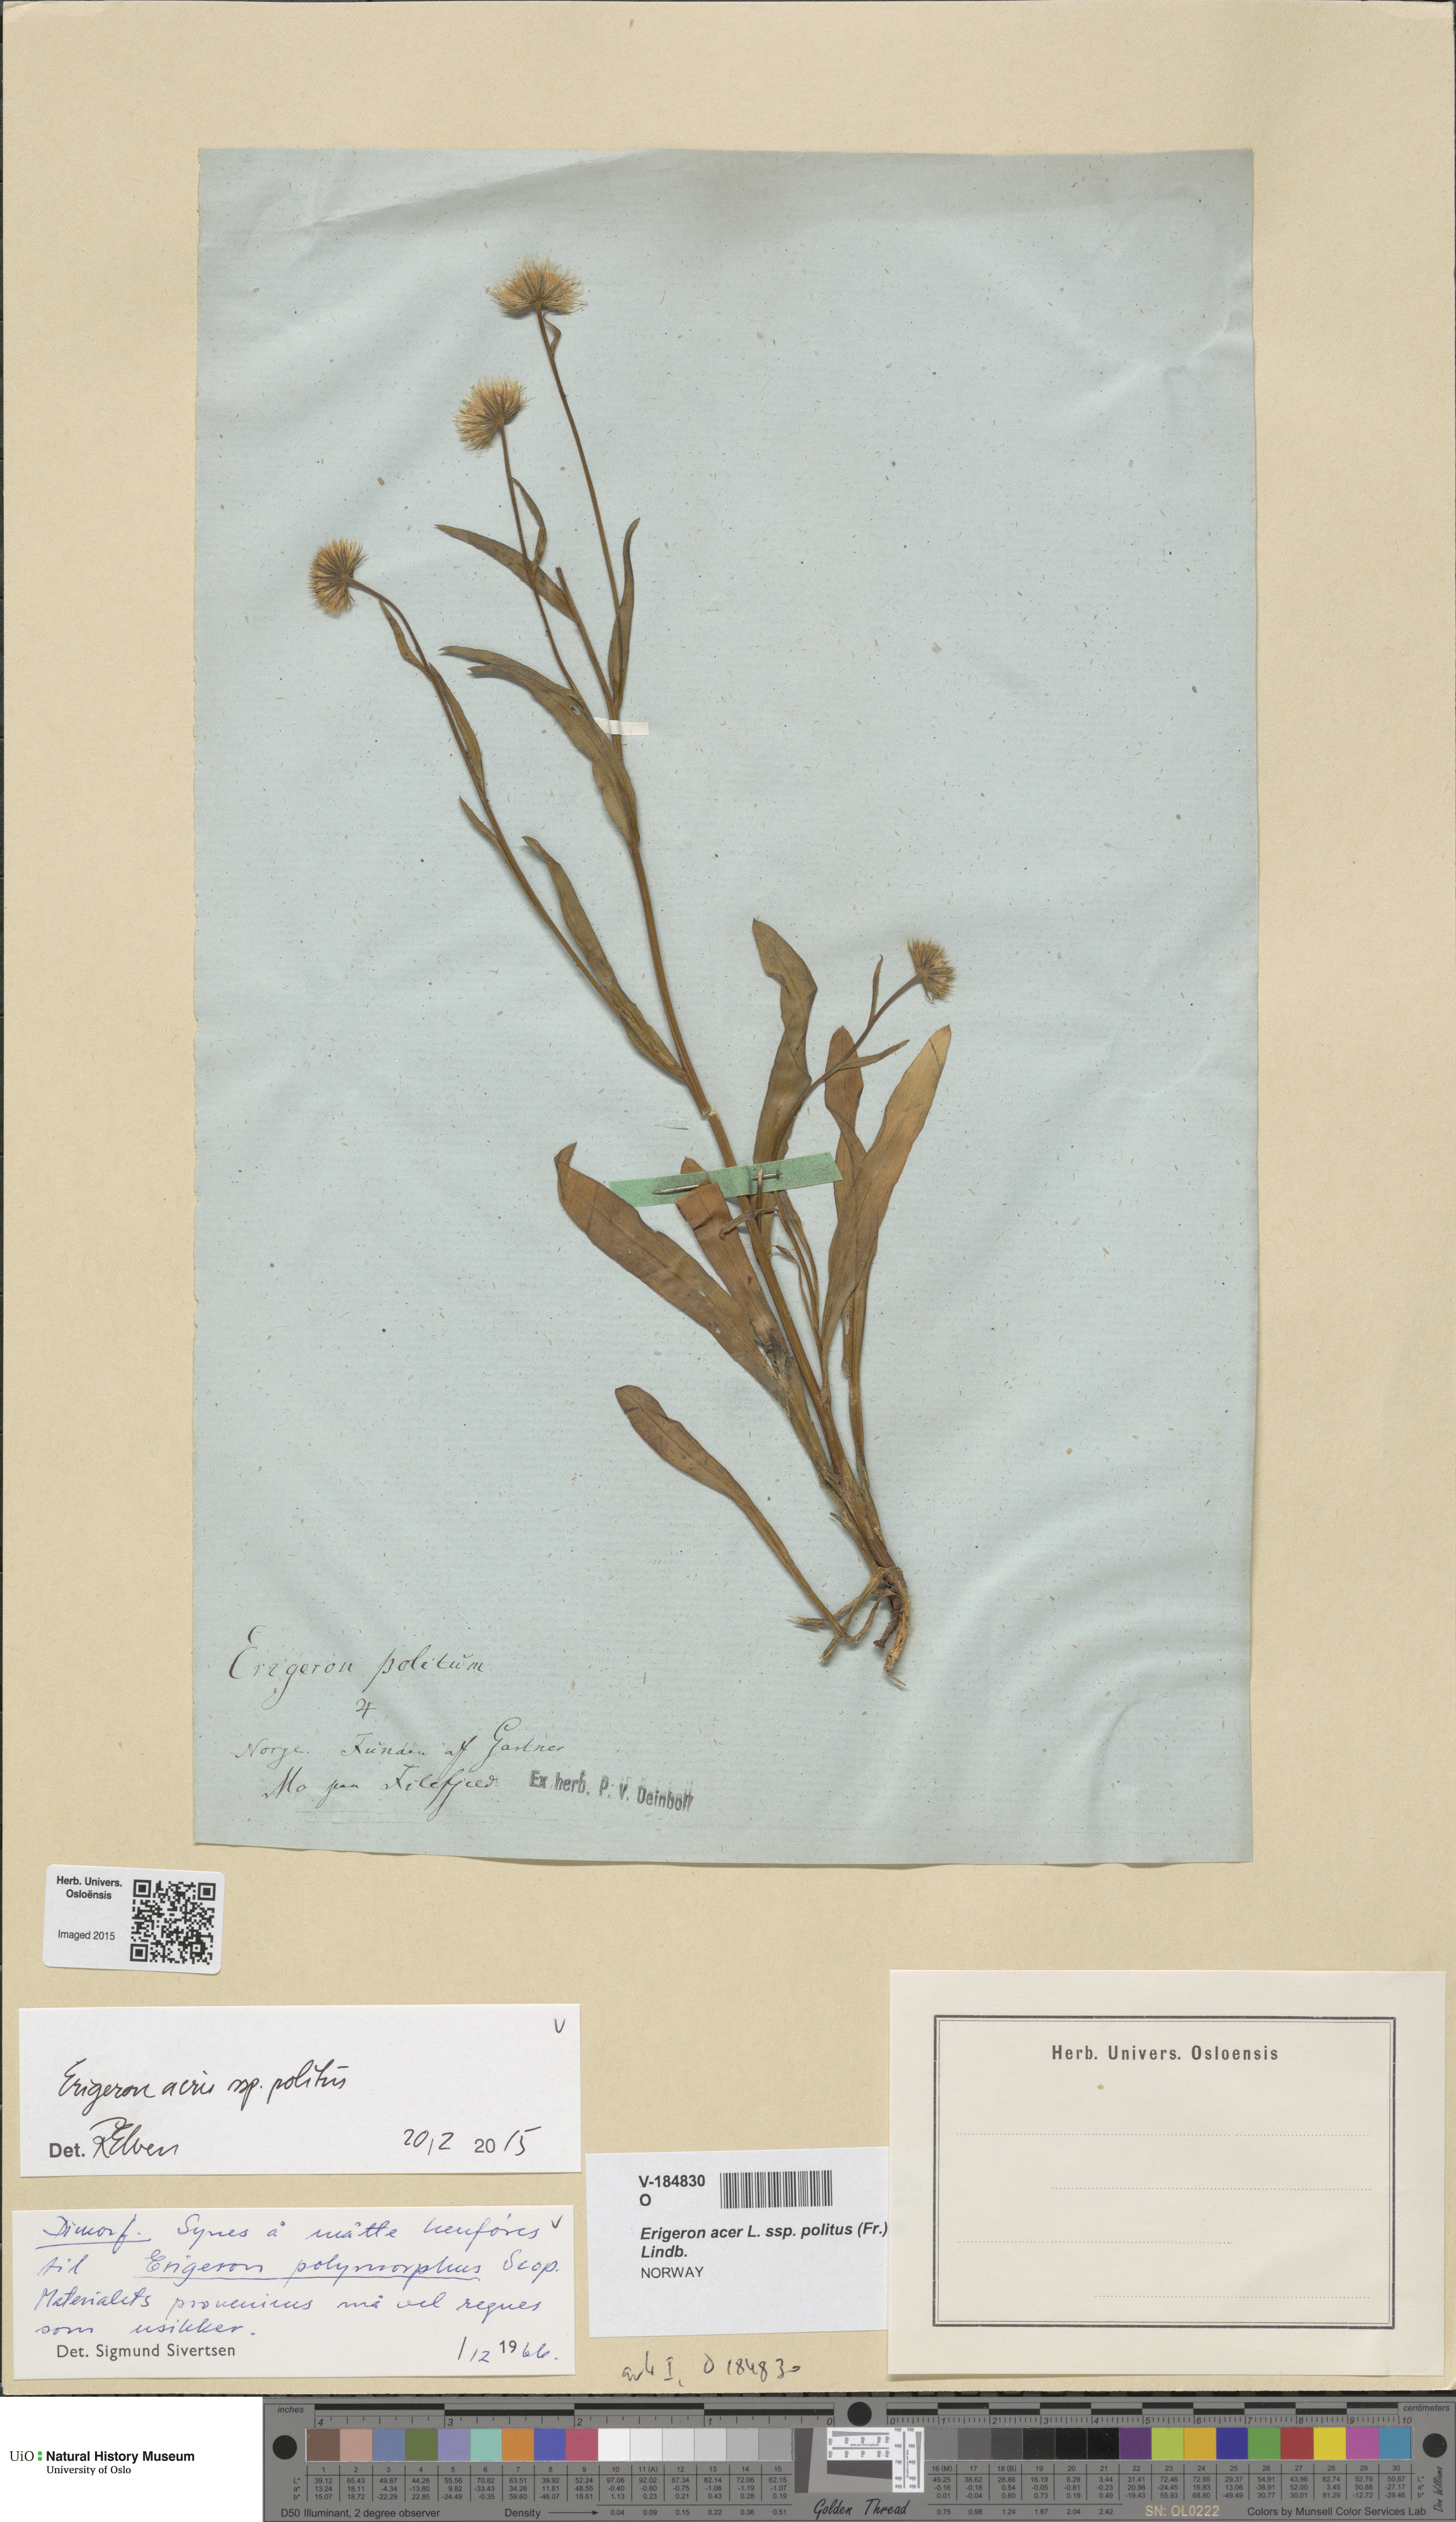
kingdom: Plantae
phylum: Tracheophyta
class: Magnoliopsida
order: Asterales
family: Asteraceae
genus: Erigeron
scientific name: Erigeron politus
